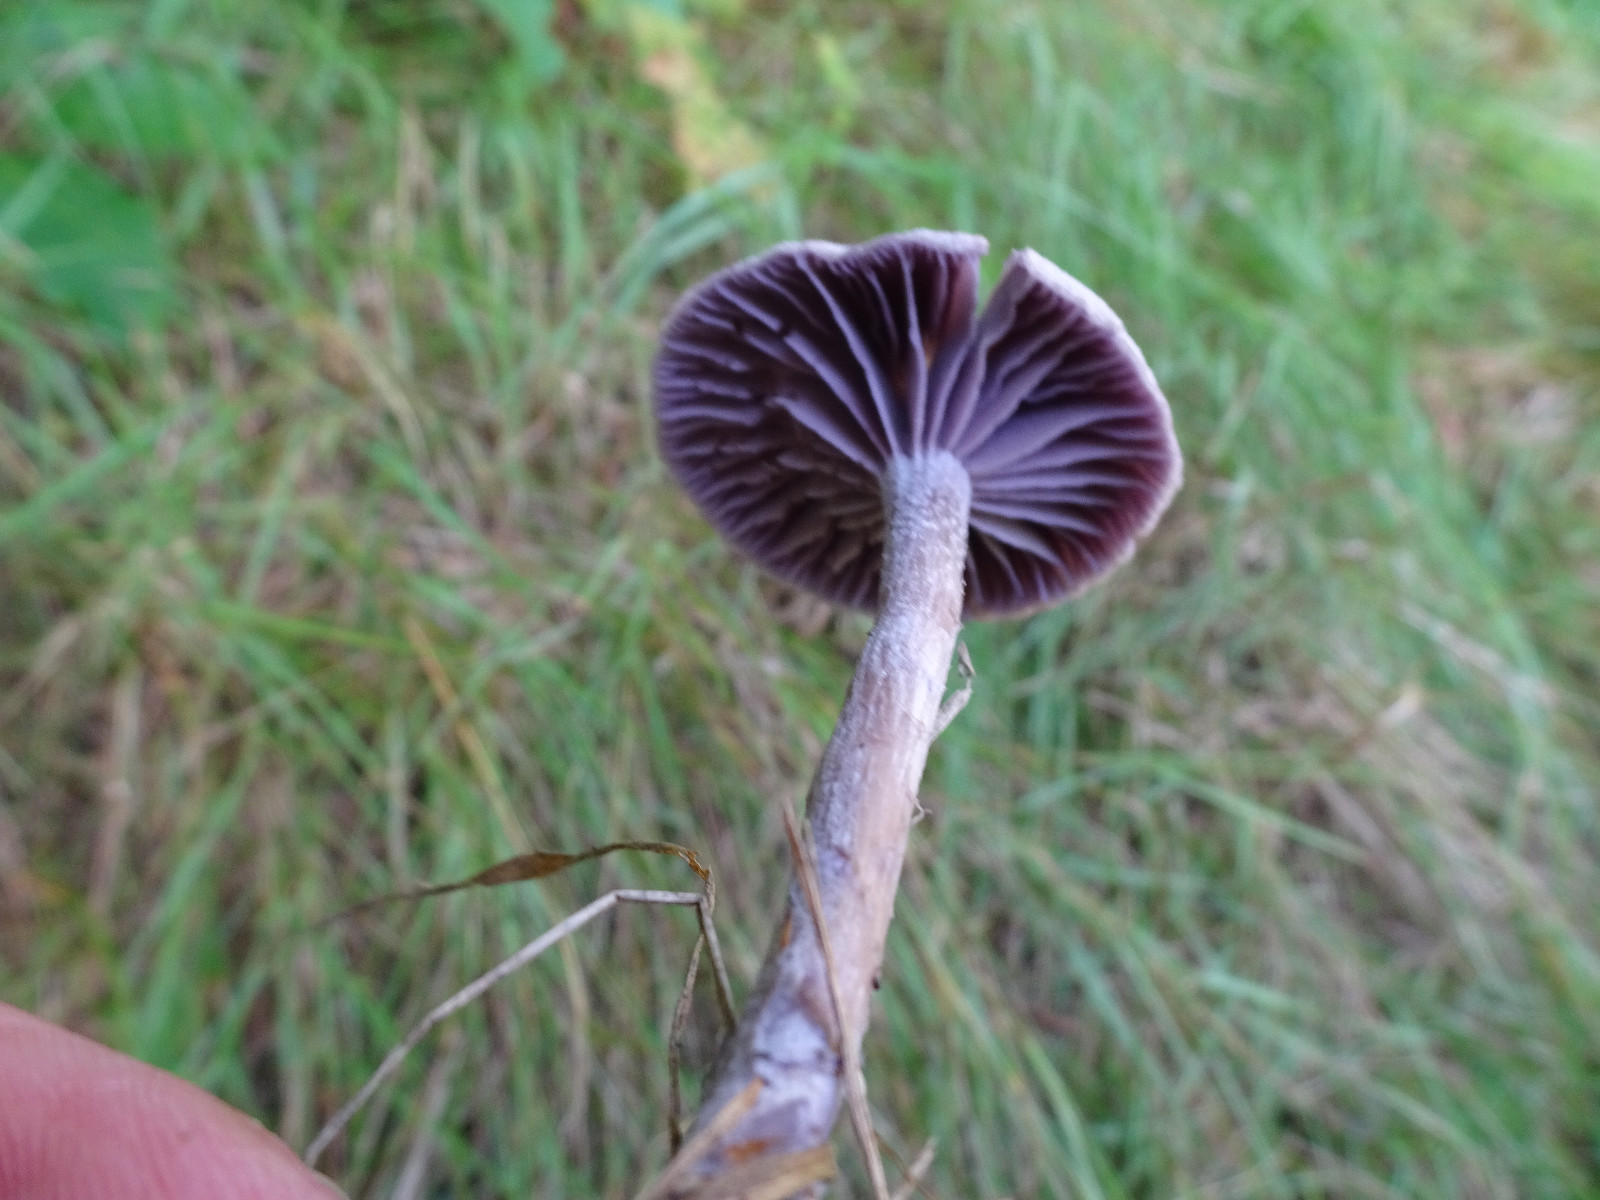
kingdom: Fungi
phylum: Basidiomycota
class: Agaricomycetes
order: Agaricales
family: Hydnangiaceae
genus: Laccaria
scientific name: Laccaria amethystina
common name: violet ametysthat
